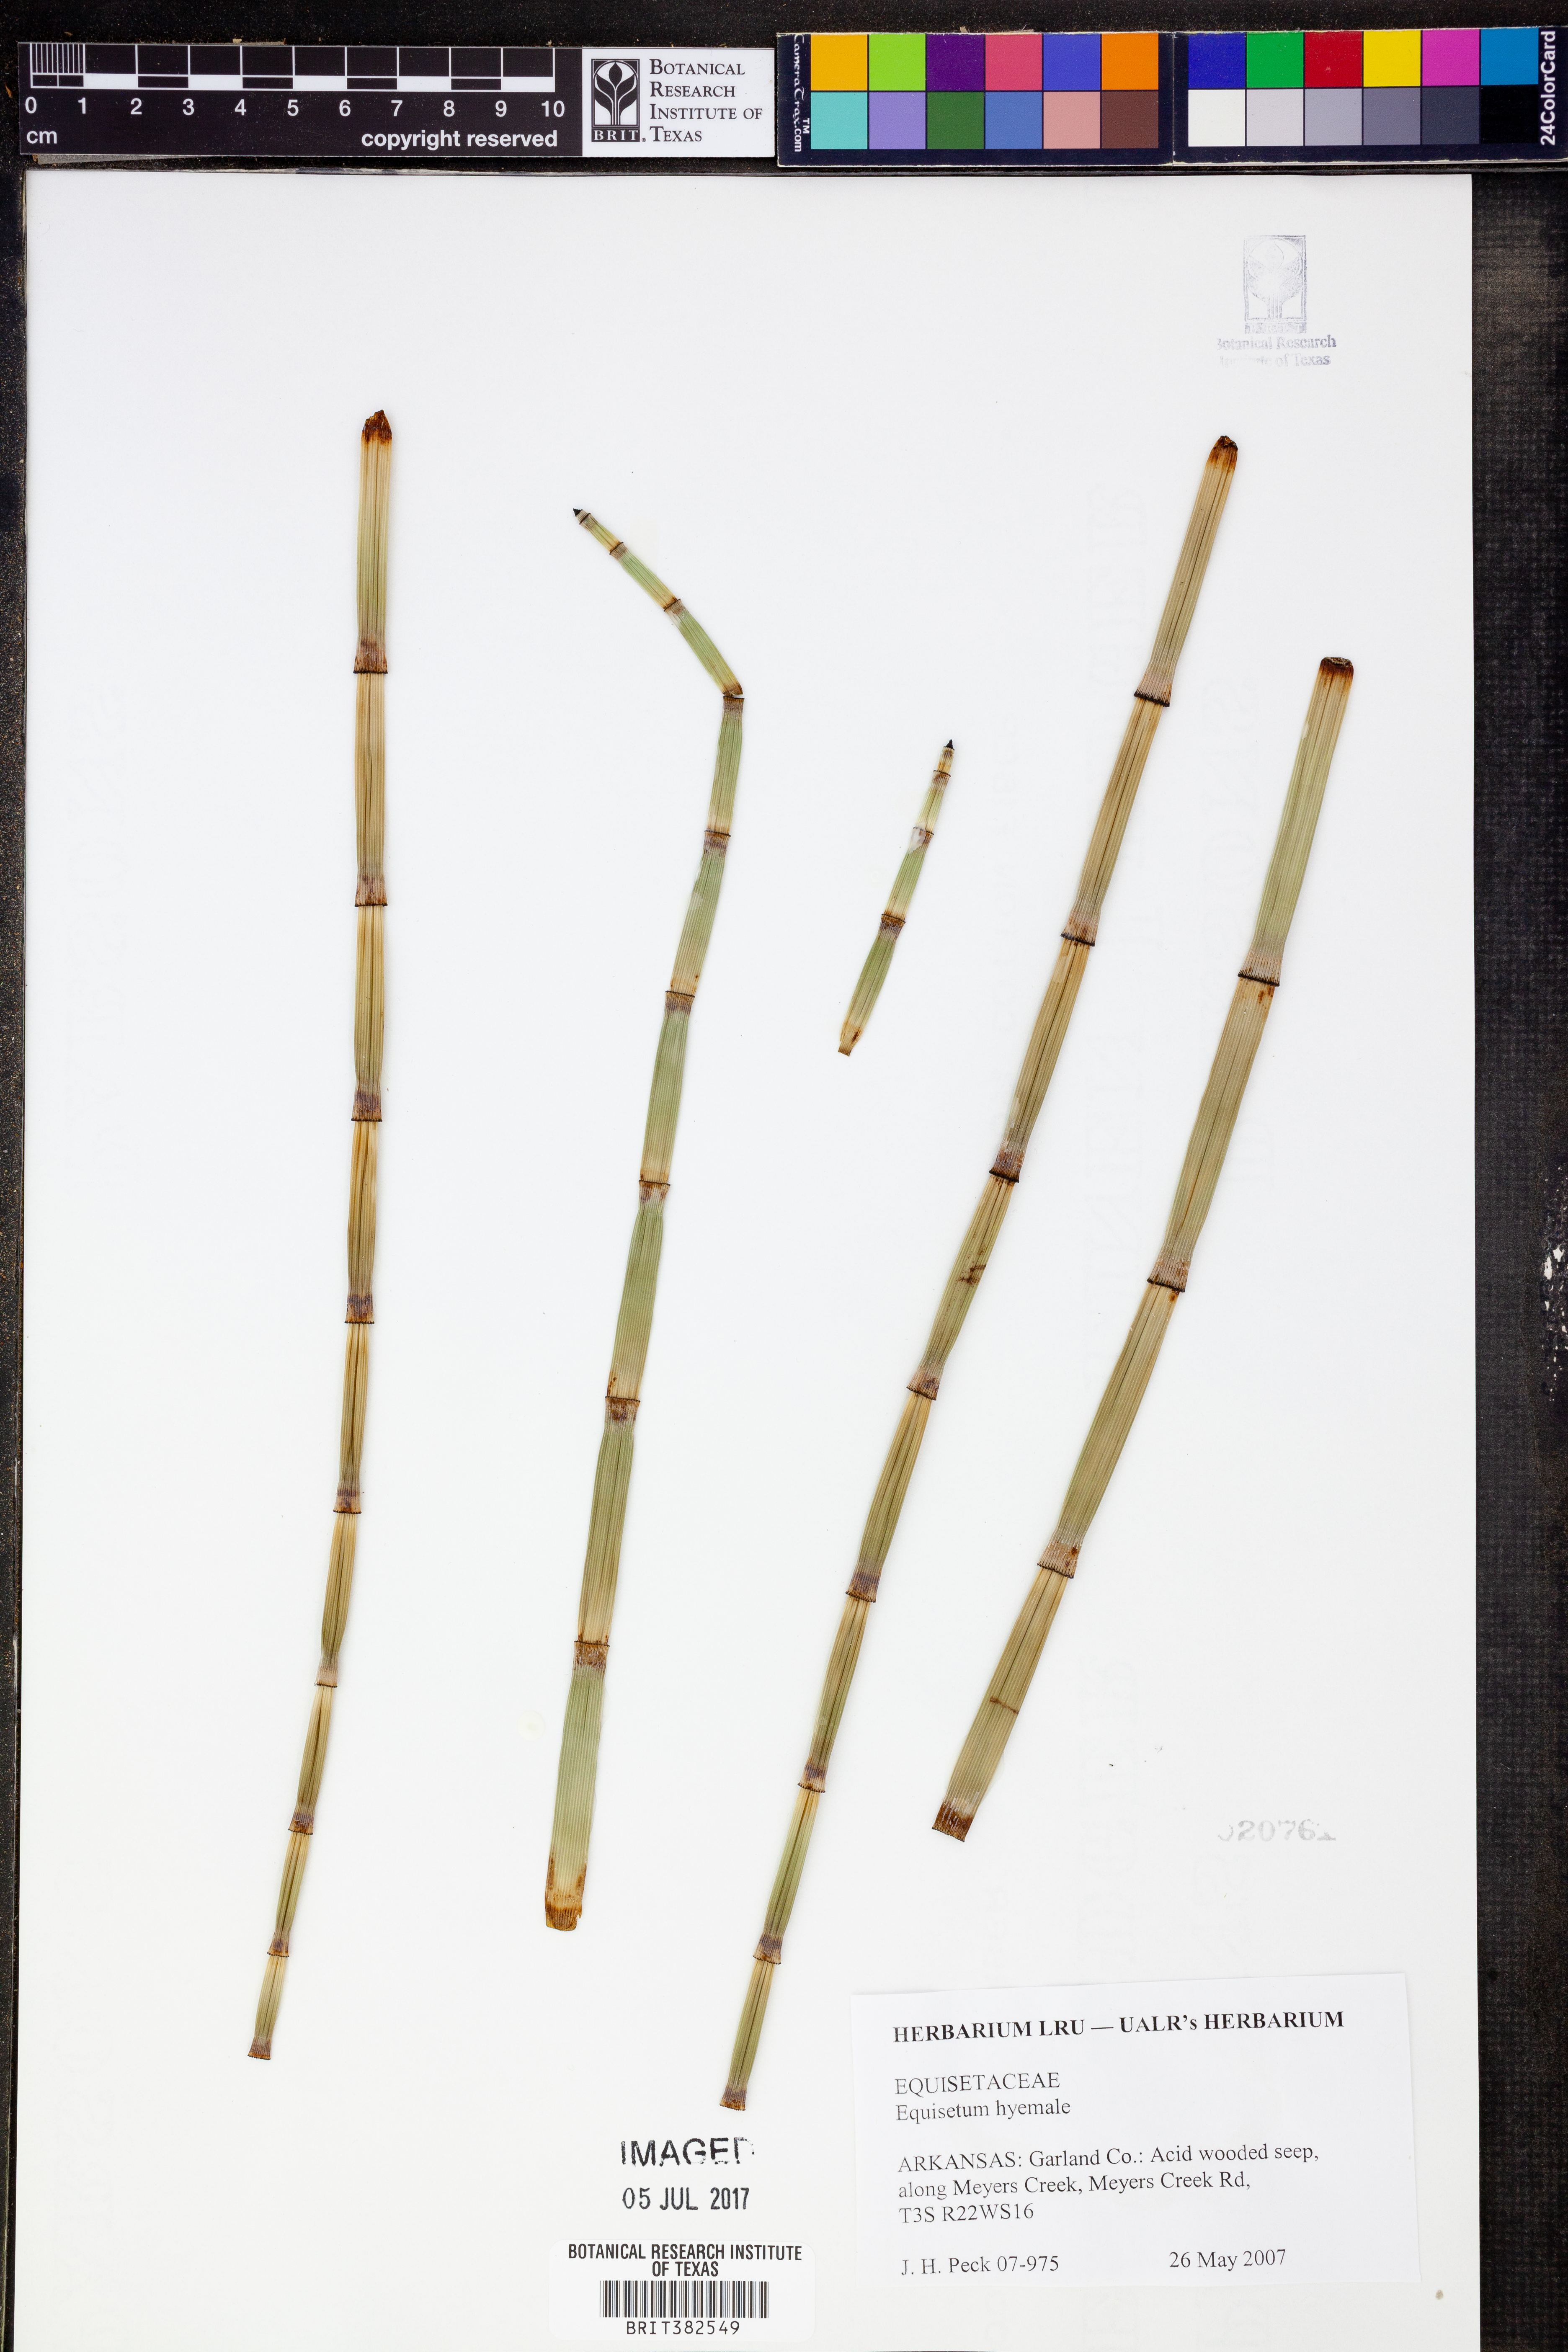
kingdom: Plantae
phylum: Tracheophyta
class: Polypodiopsida
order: Equisetales
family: Equisetaceae
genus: Equisetum
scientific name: Equisetum hyemale
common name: Rough horsetail
